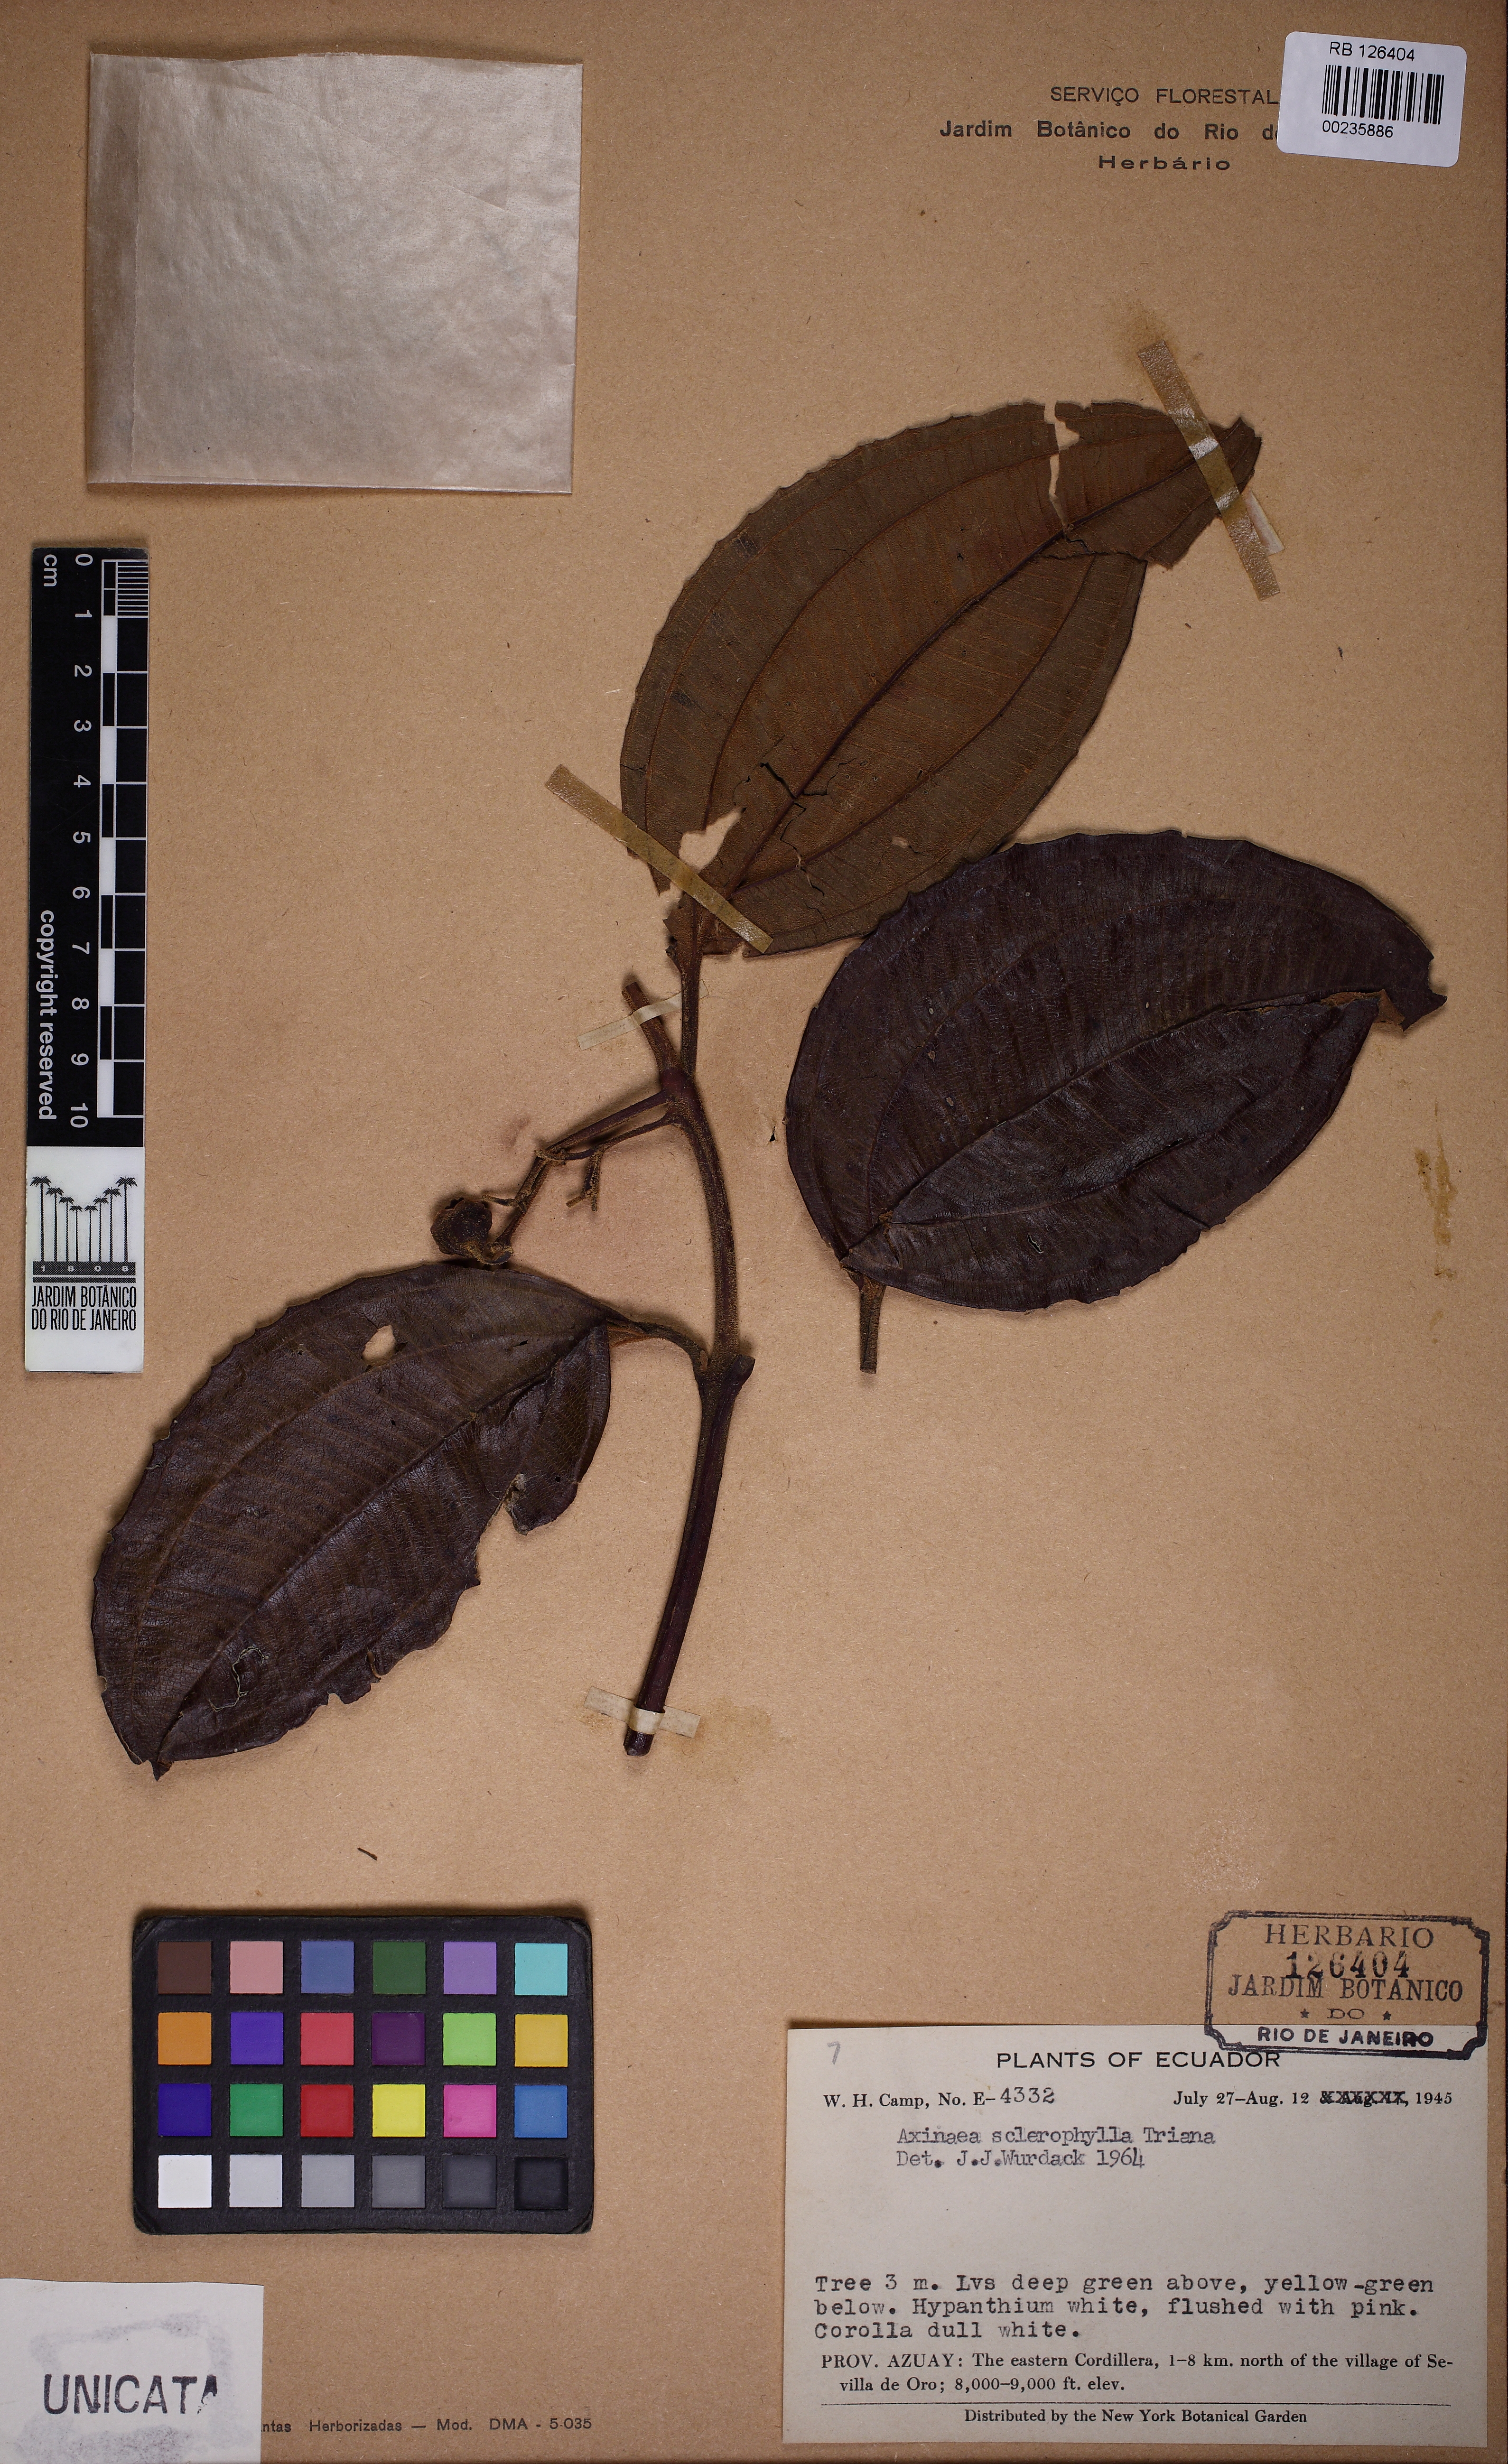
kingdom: Plantae
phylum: Tracheophyta
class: Magnoliopsida
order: Myrtales
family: Melastomataceae
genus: Axinaea
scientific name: Axinaea sclerophylla
